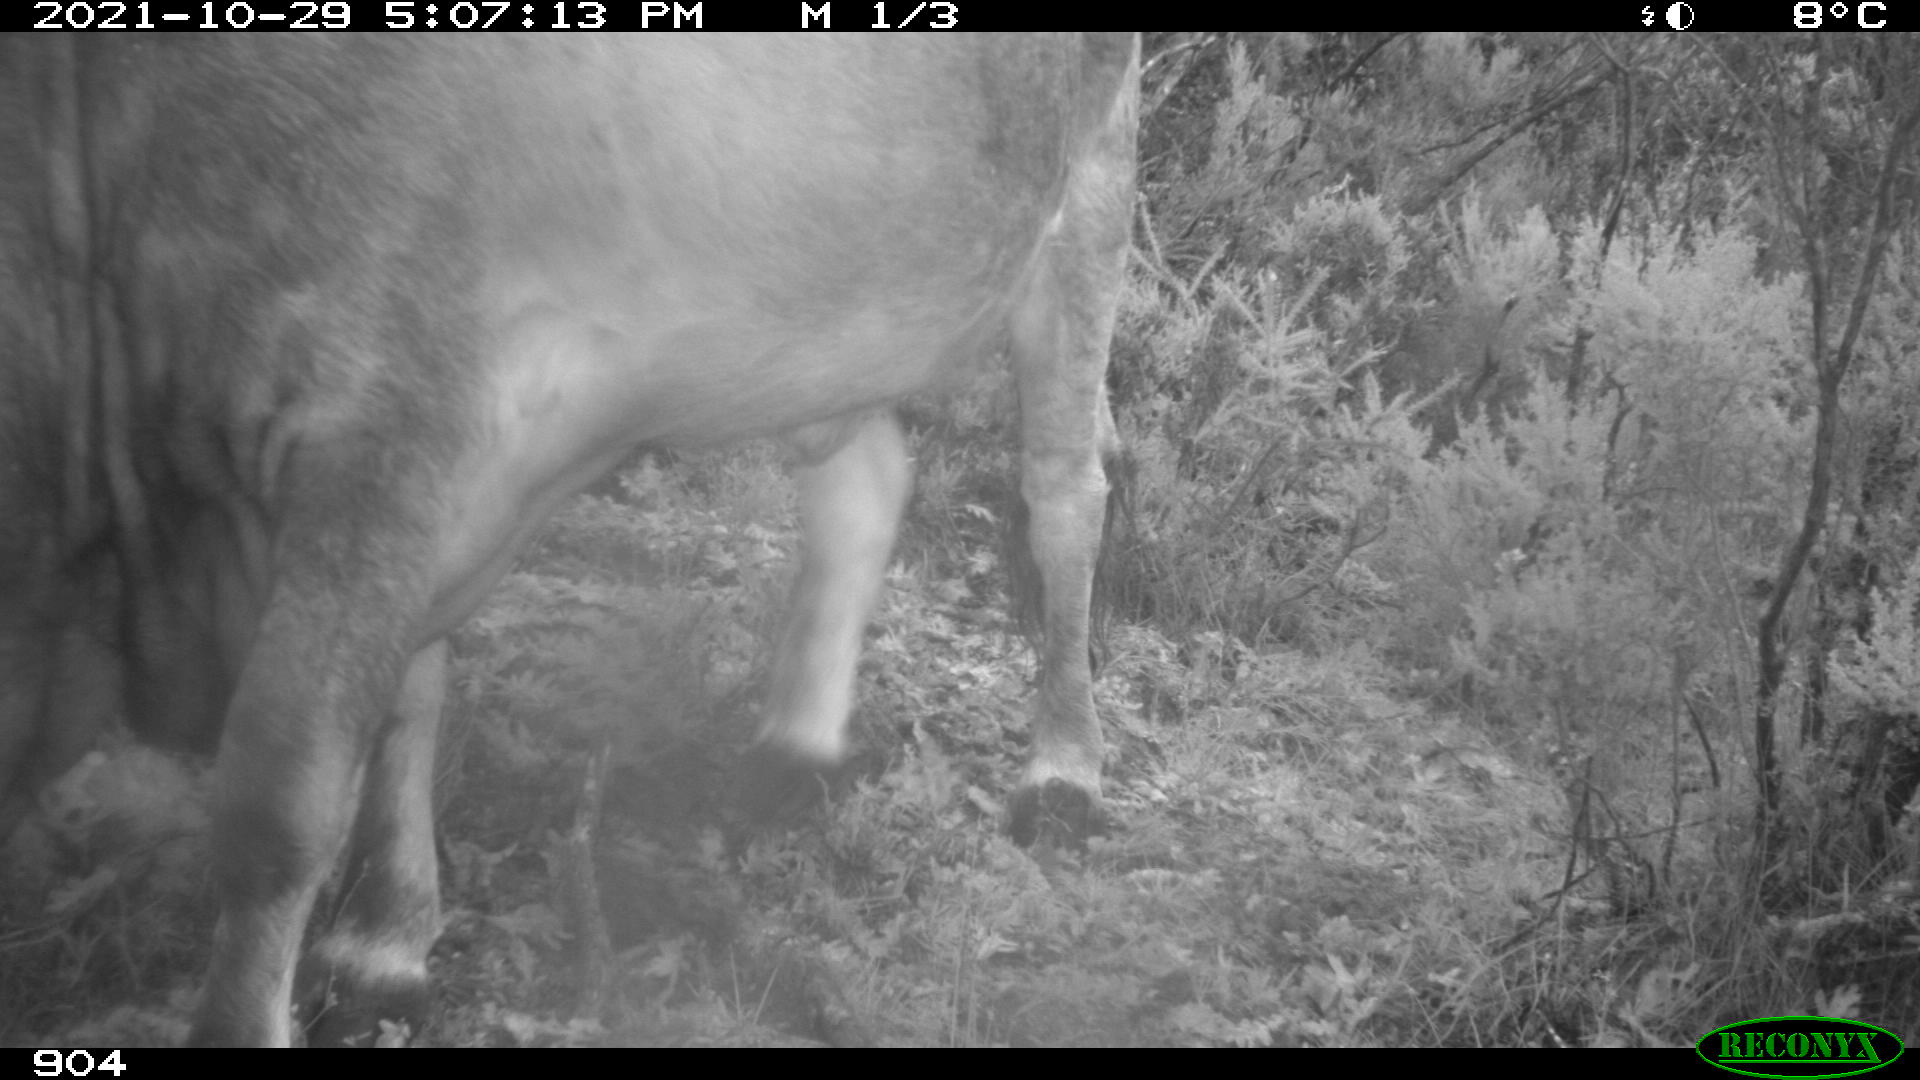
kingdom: Animalia
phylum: Chordata
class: Mammalia
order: Artiodactyla
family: Bovidae
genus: Bos
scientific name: Bos taurus
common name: Domesticated cattle
